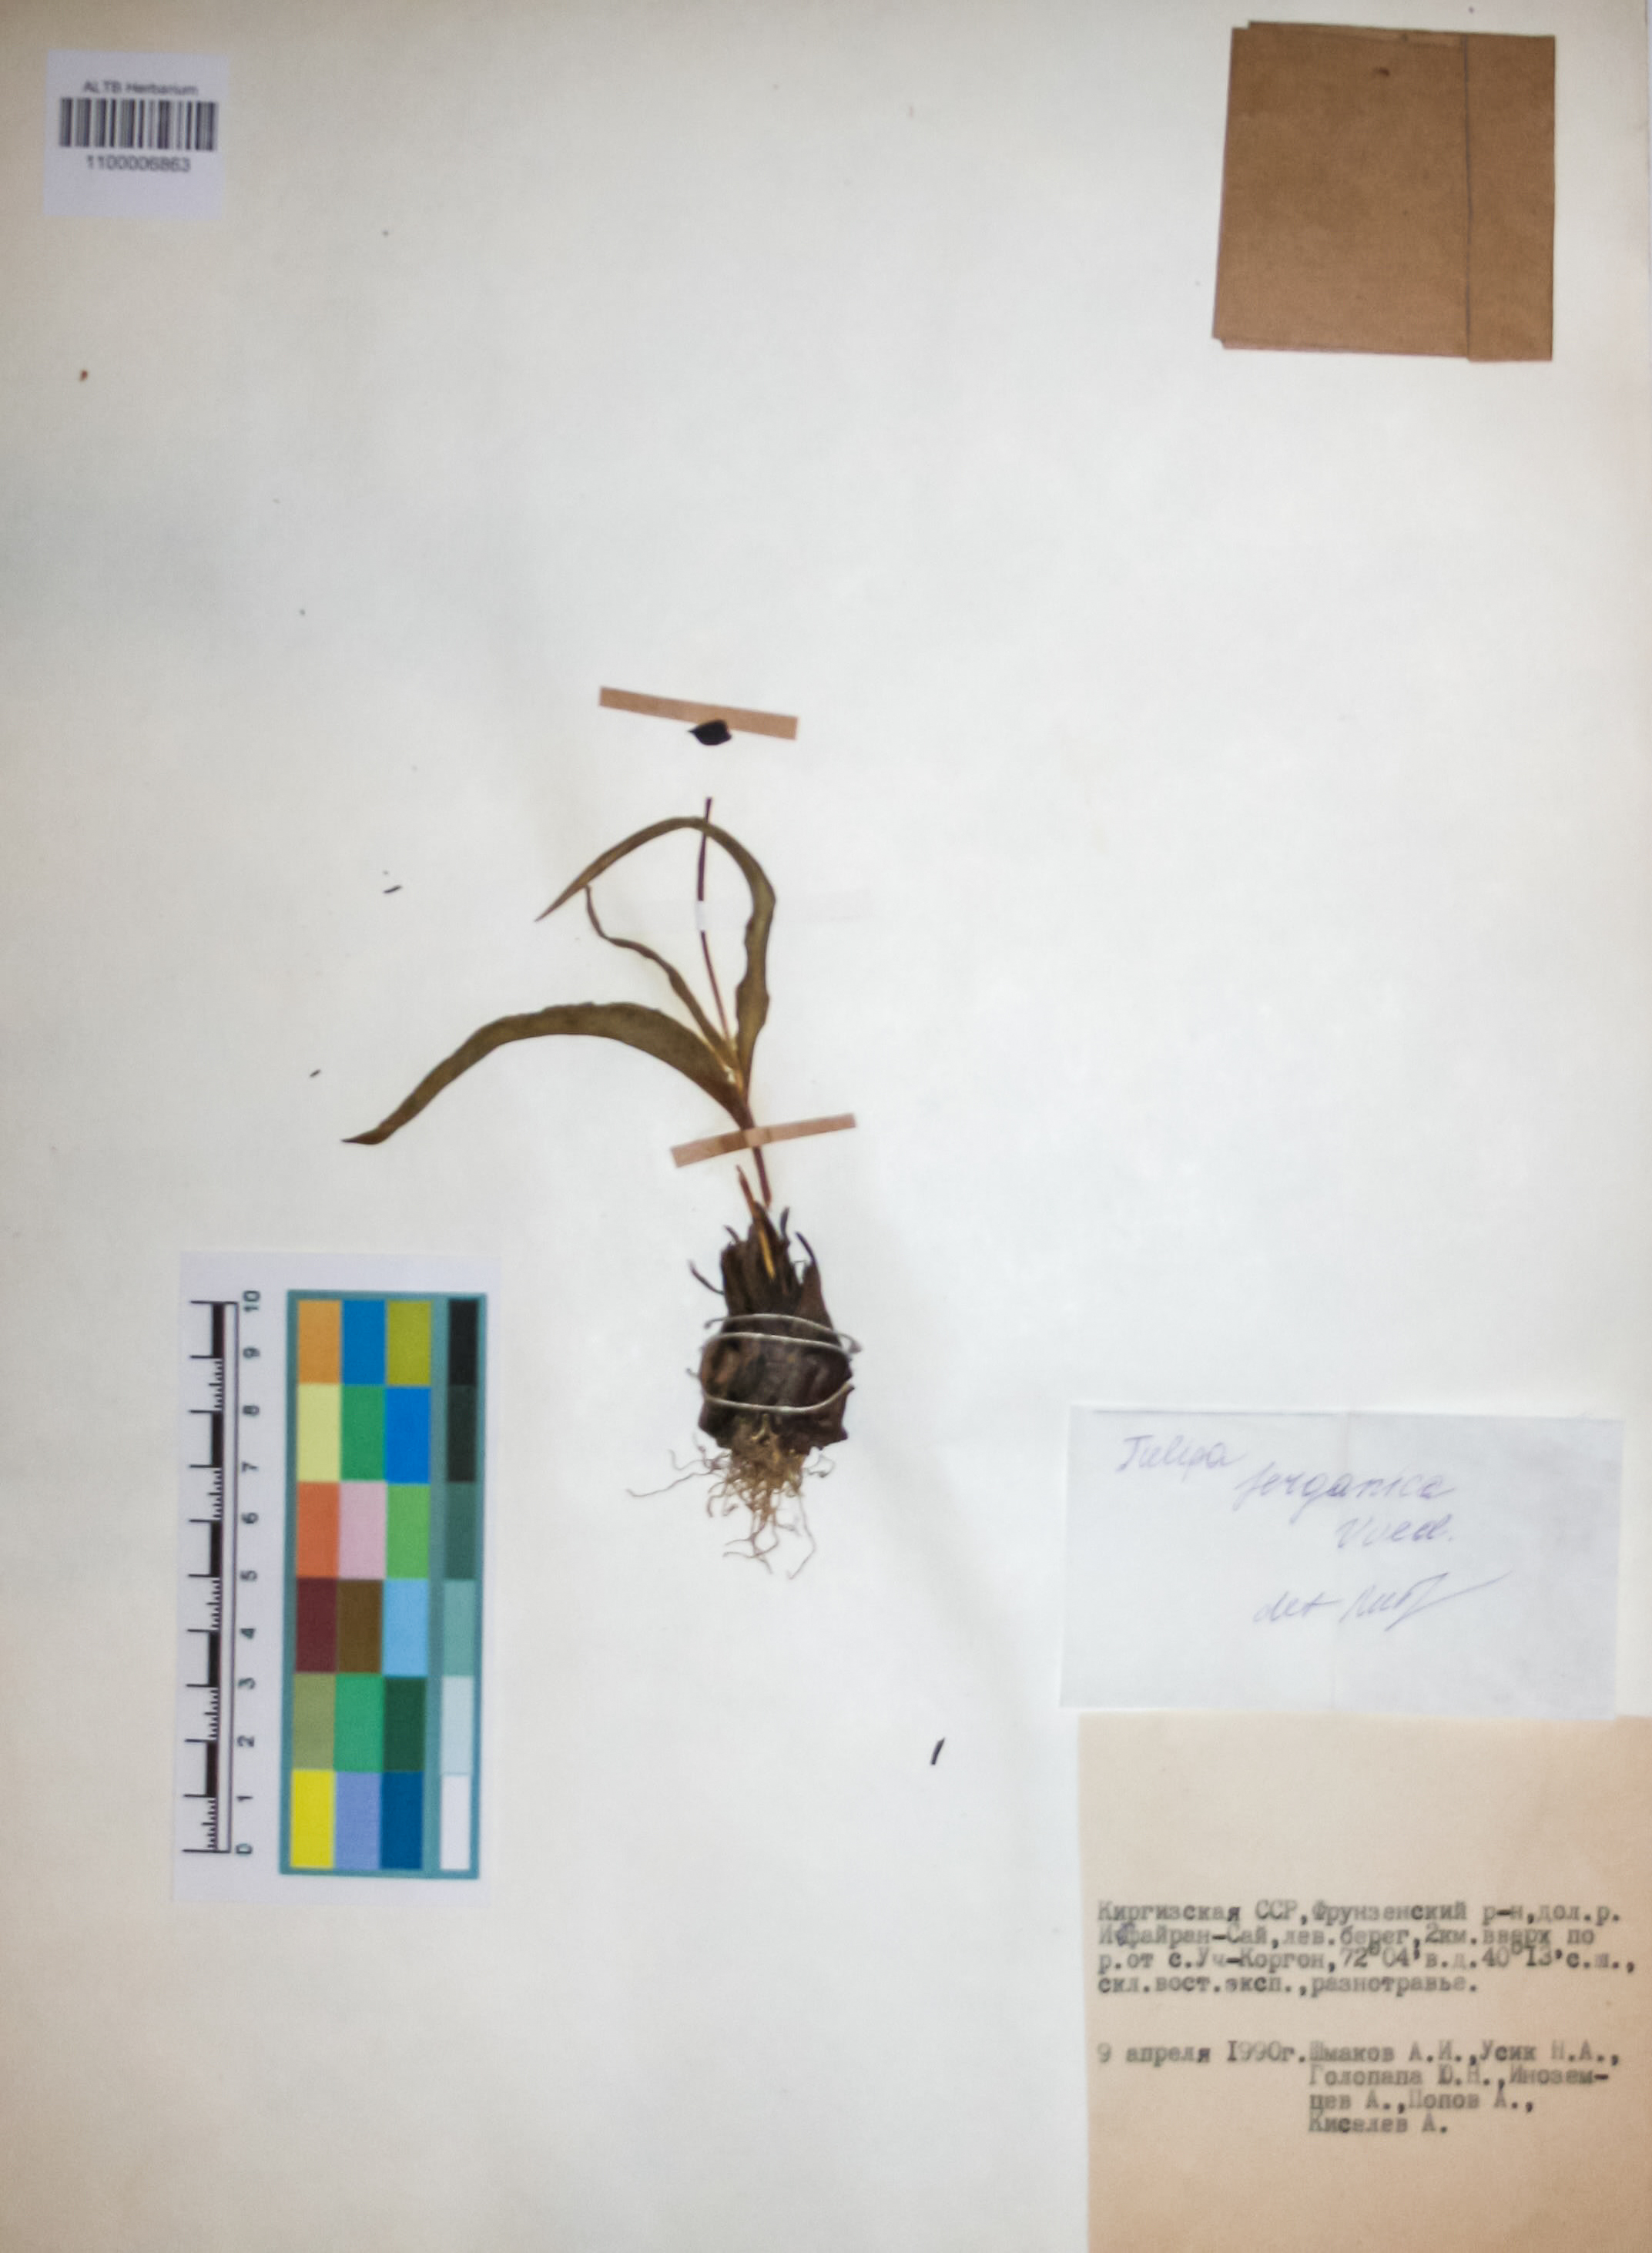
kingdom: Plantae
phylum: Tracheophyta
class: Liliopsida
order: Liliales
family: Liliaceae
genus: Tulipa
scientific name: Tulipa ferganica
